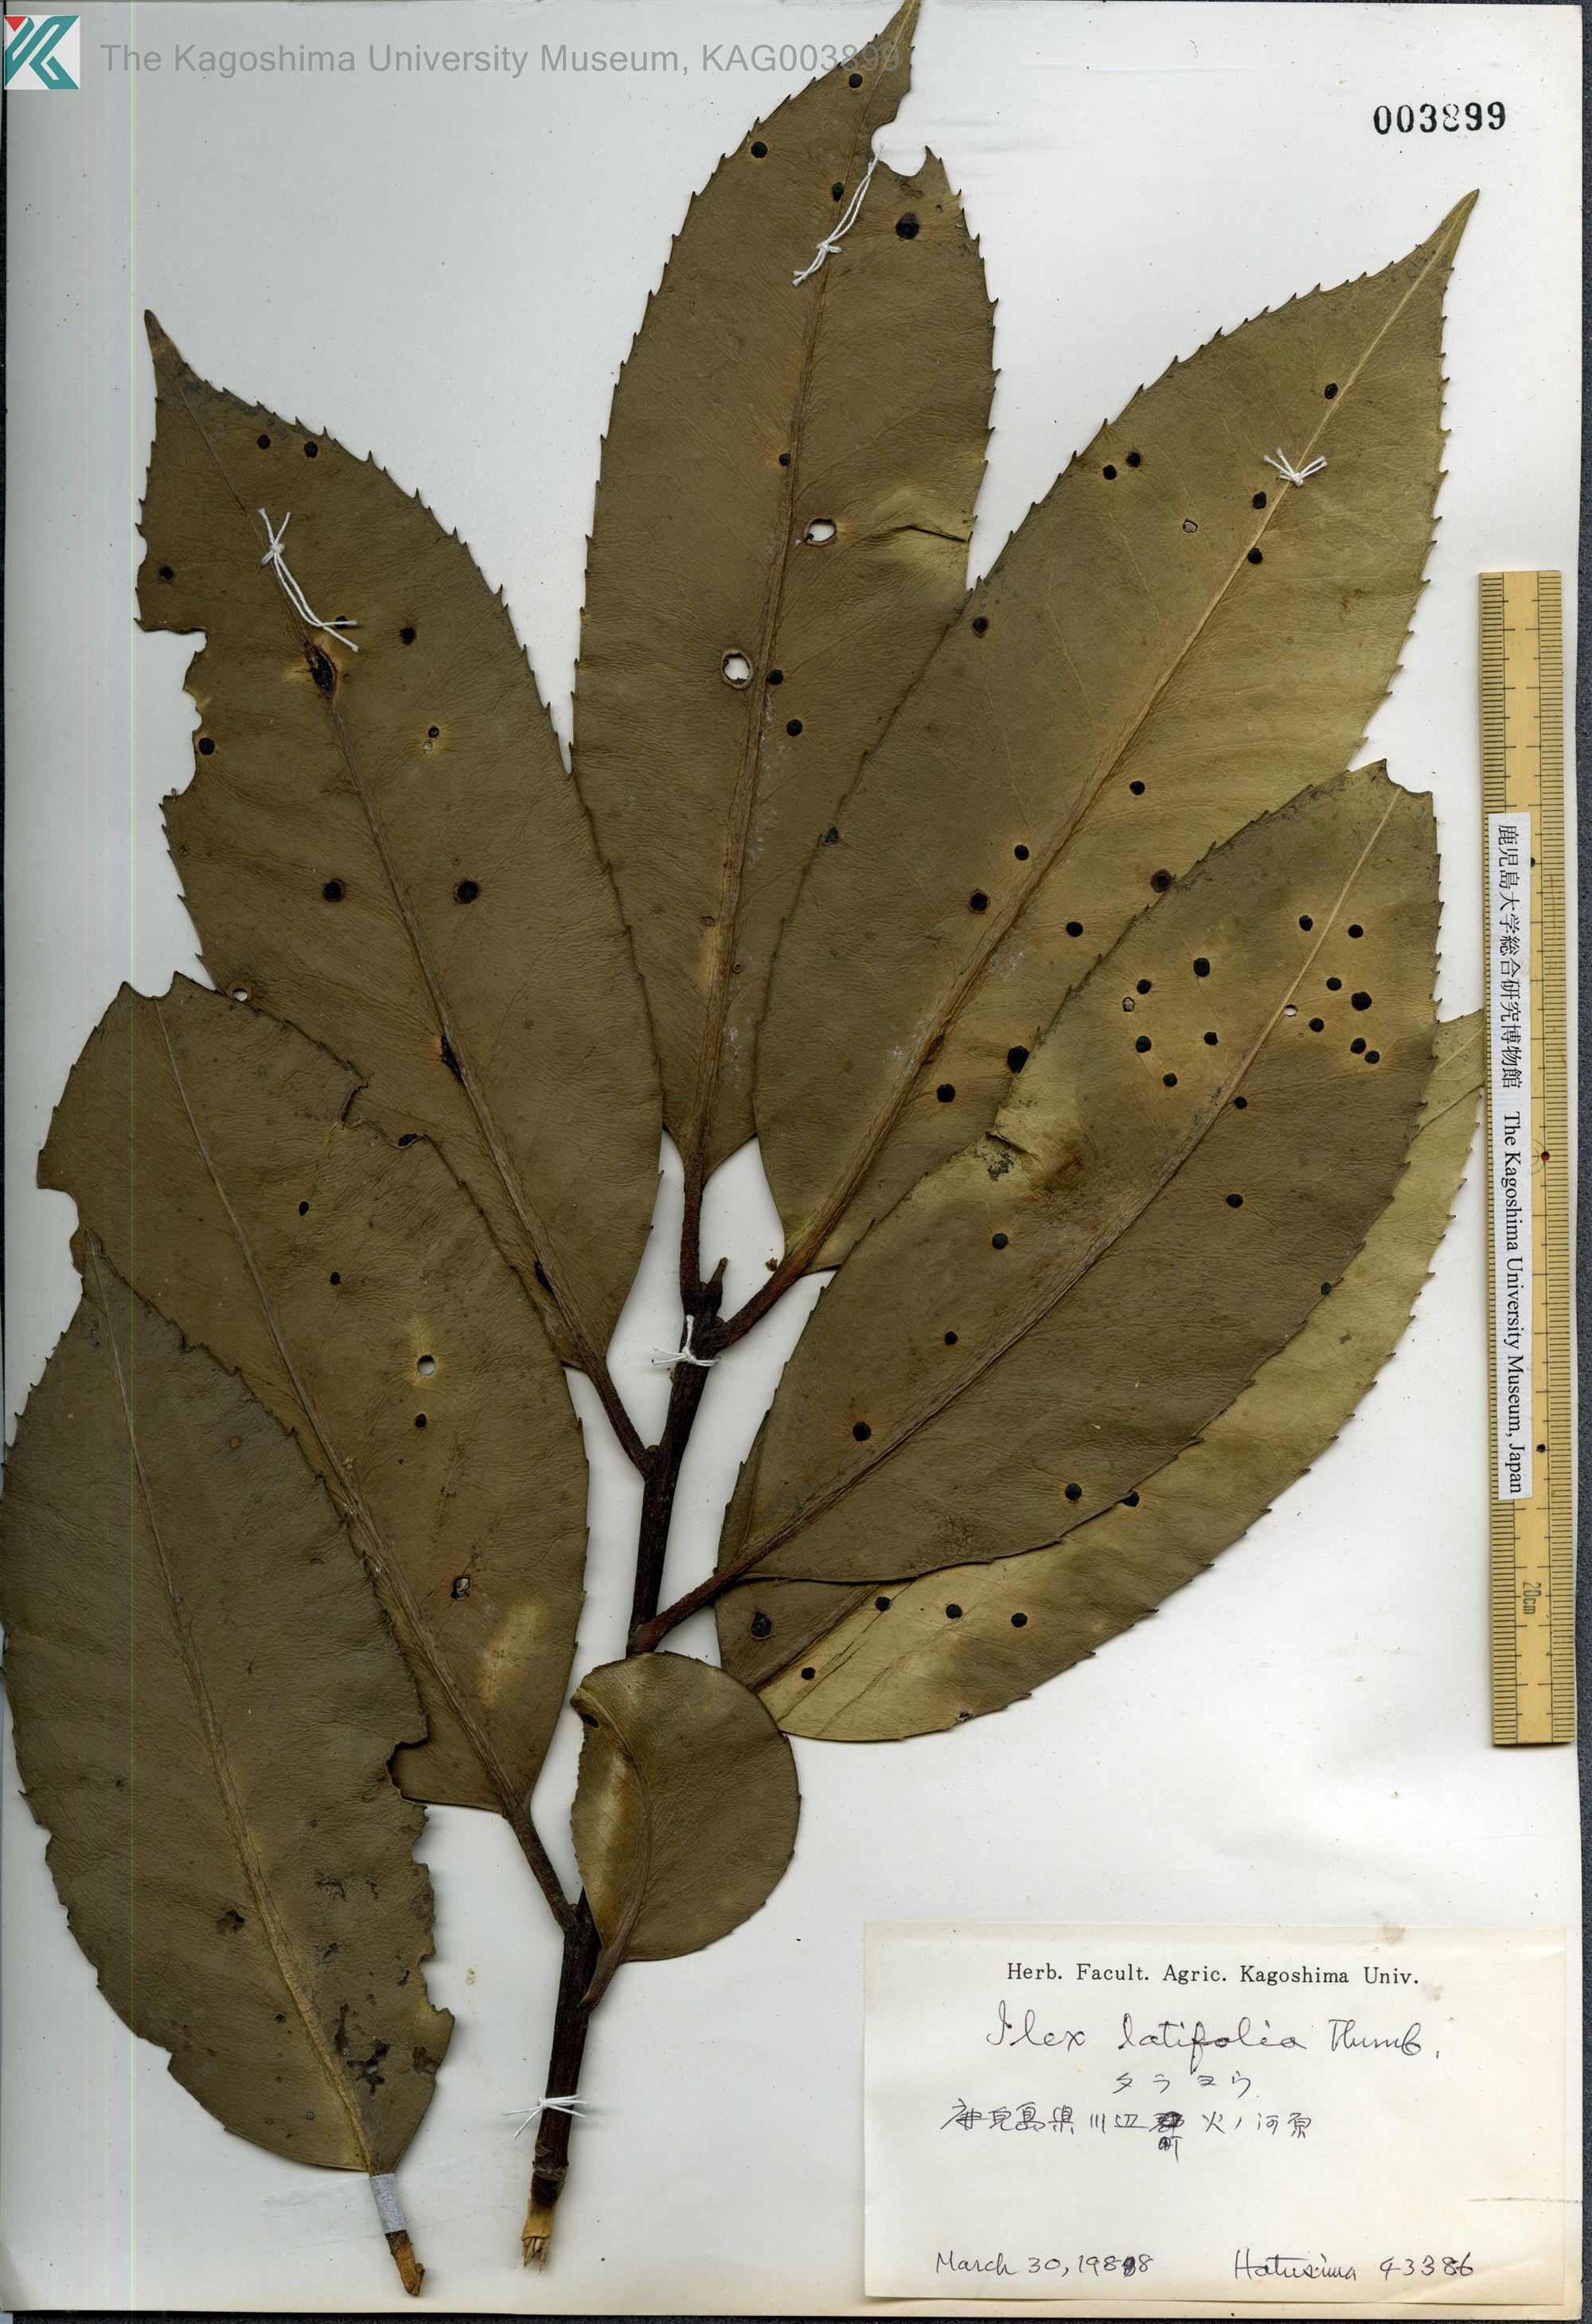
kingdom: Plantae
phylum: Tracheophyta
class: Magnoliopsida
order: Aquifoliales
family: Aquifoliaceae
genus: Ilex
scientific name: Ilex latifolia
